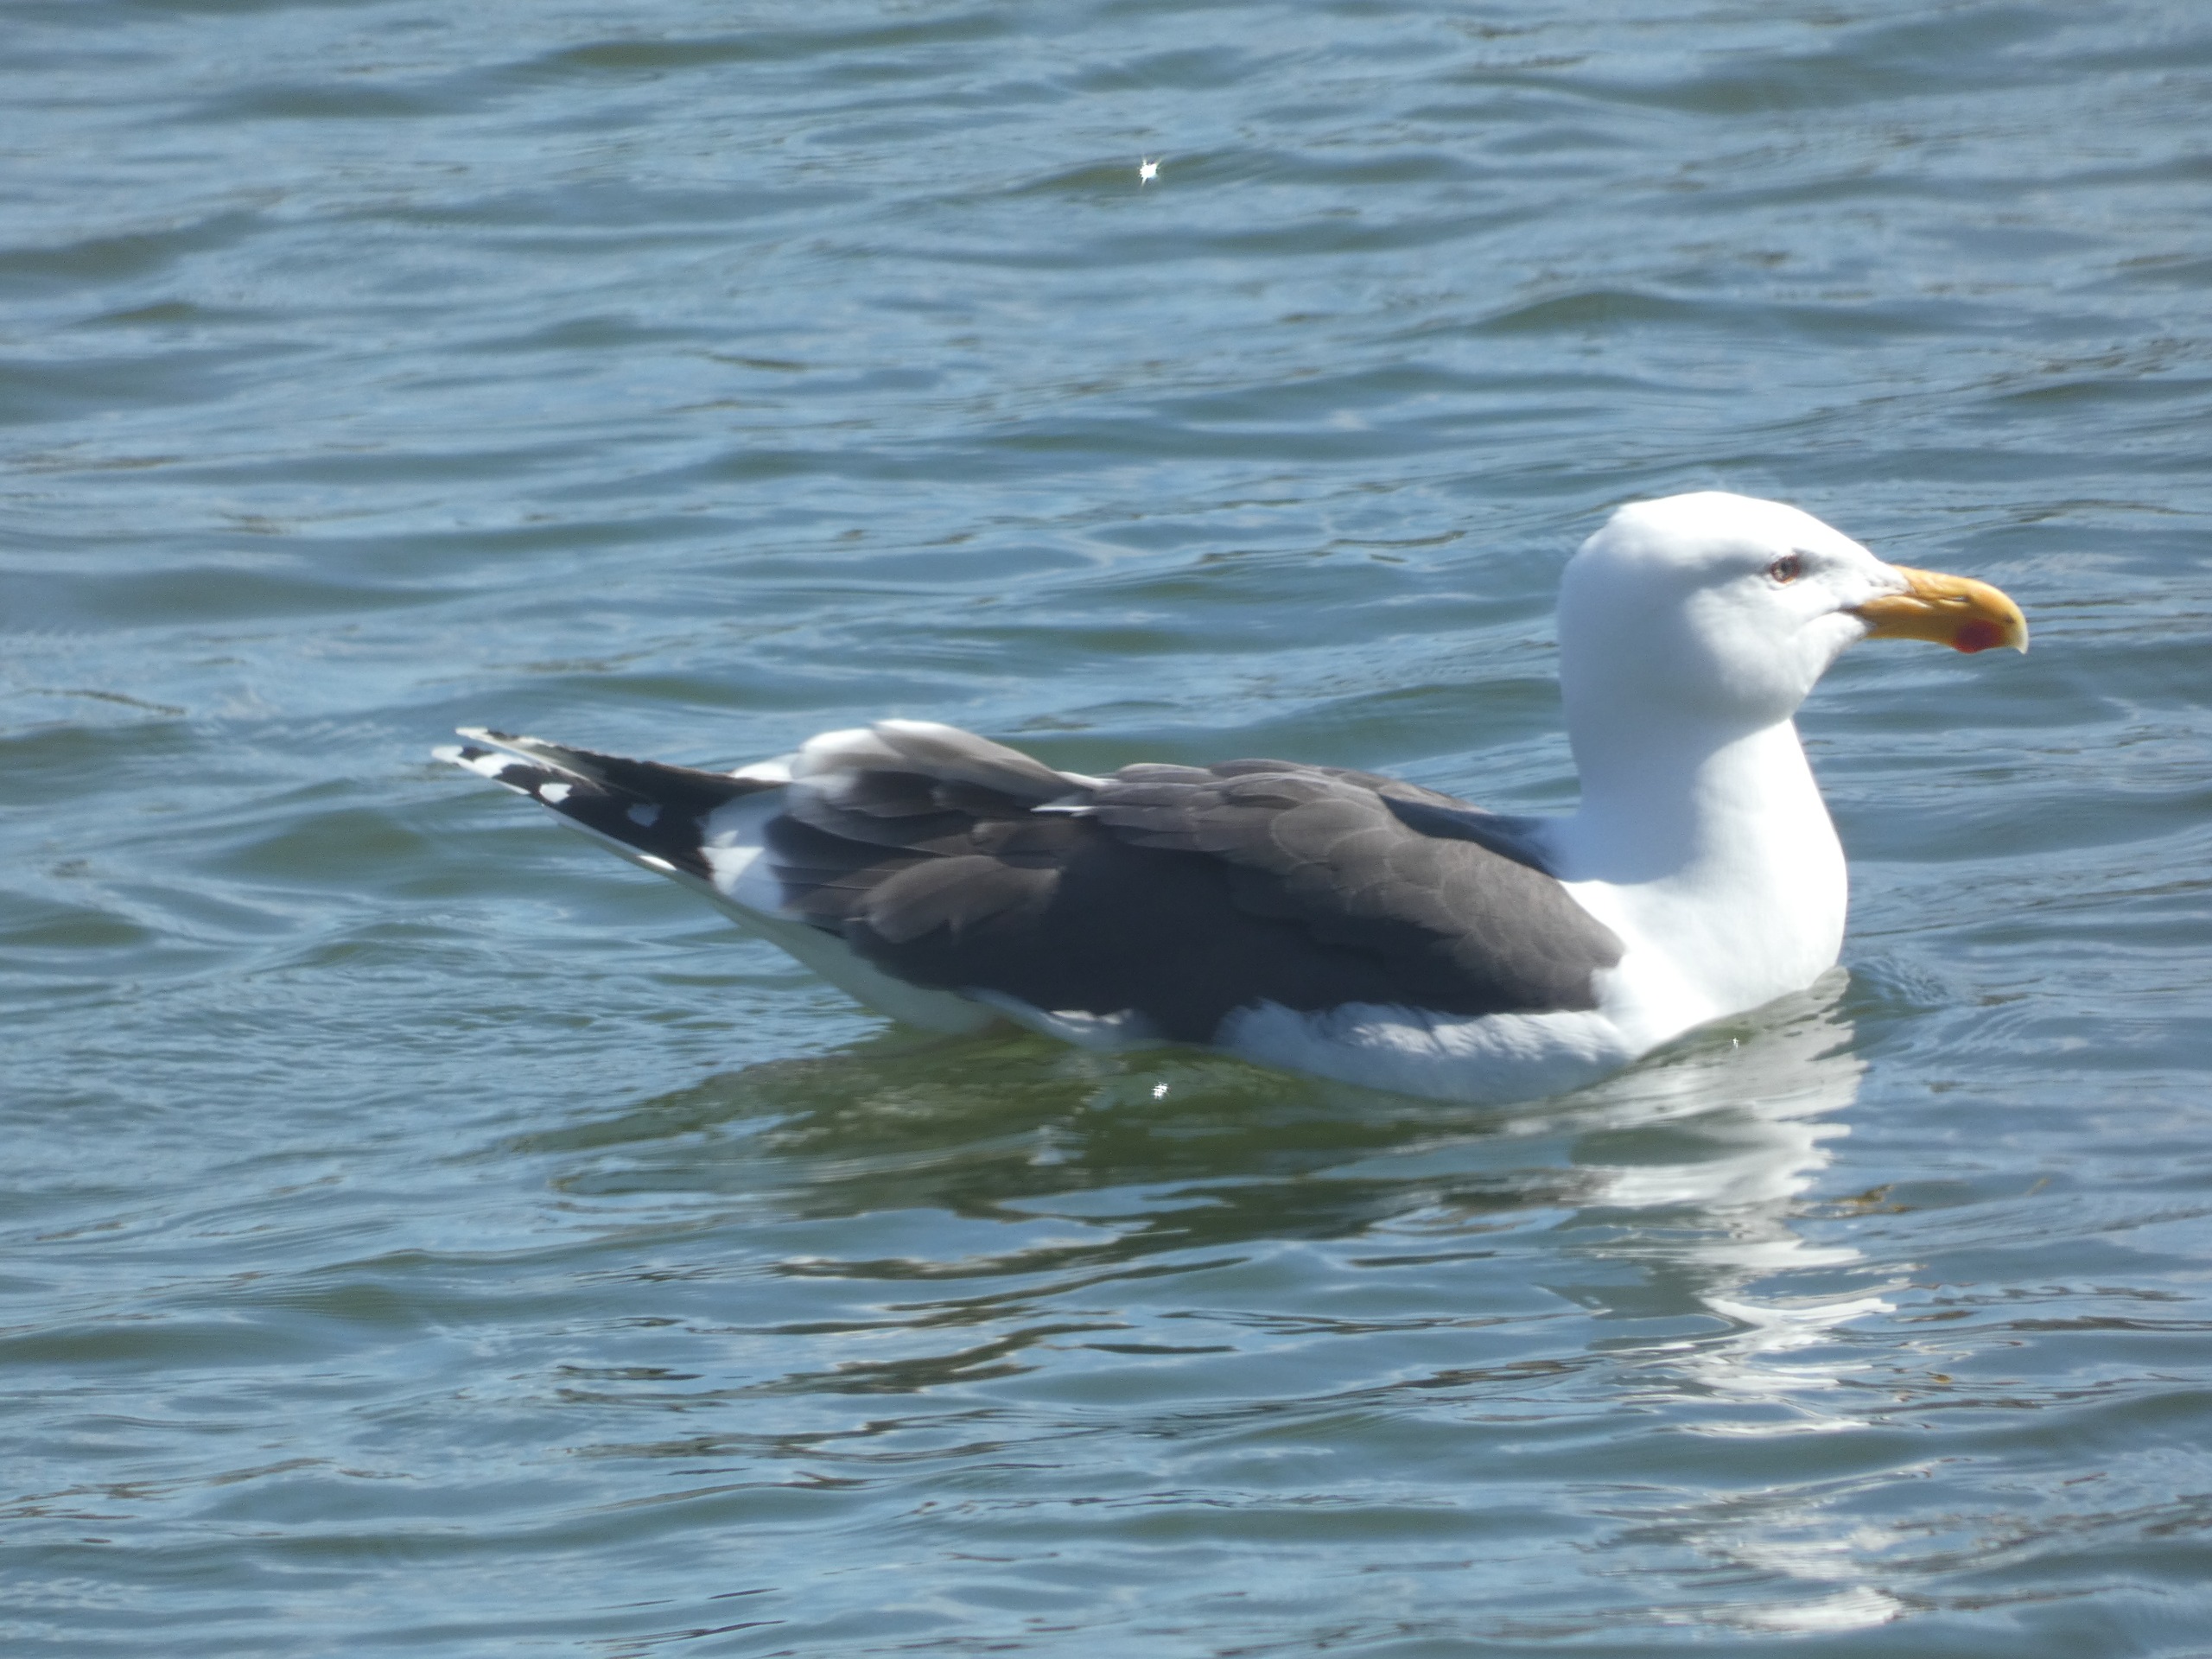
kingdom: Animalia
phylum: Chordata
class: Aves
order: Charadriiformes
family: Laridae
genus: Larus
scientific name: Larus marinus
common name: Svartbag
